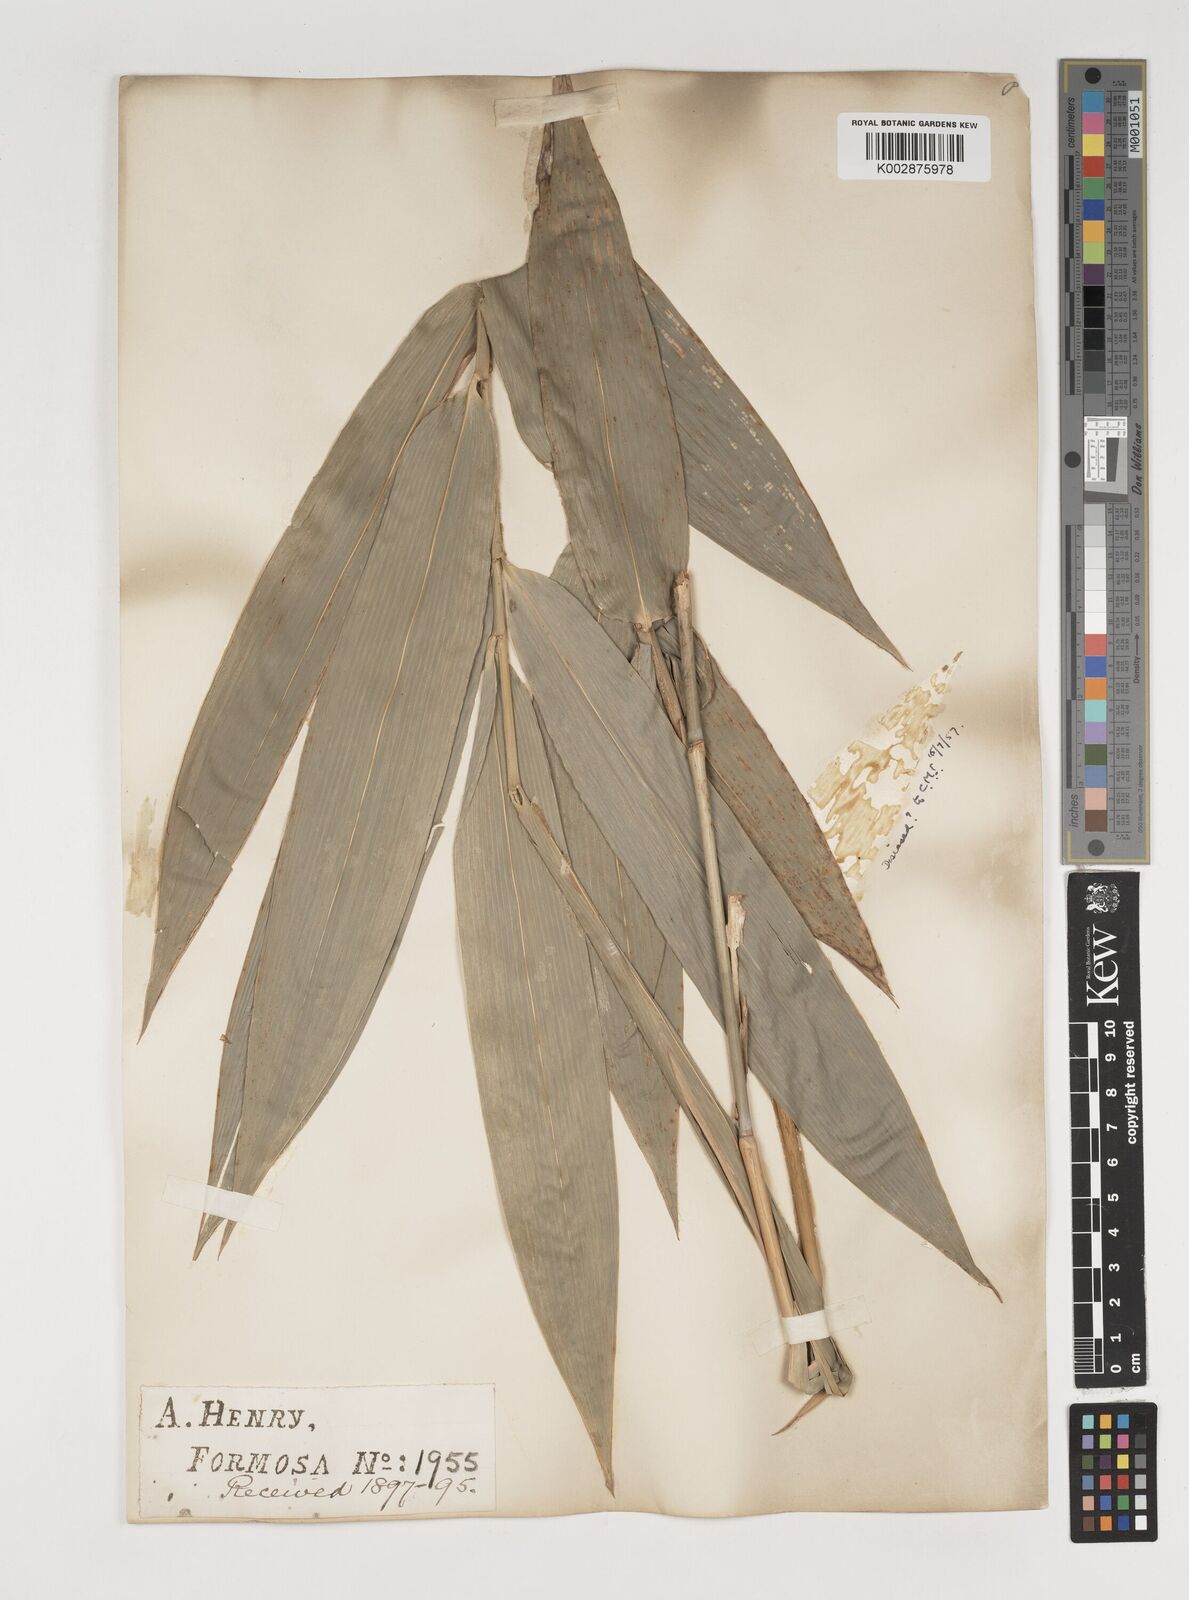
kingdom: Plantae
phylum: Tracheophyta
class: Liliopsida
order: Poales
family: Poaceae
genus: Bambusa
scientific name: Bambusa oldhamii
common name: Giant timber bamboo
